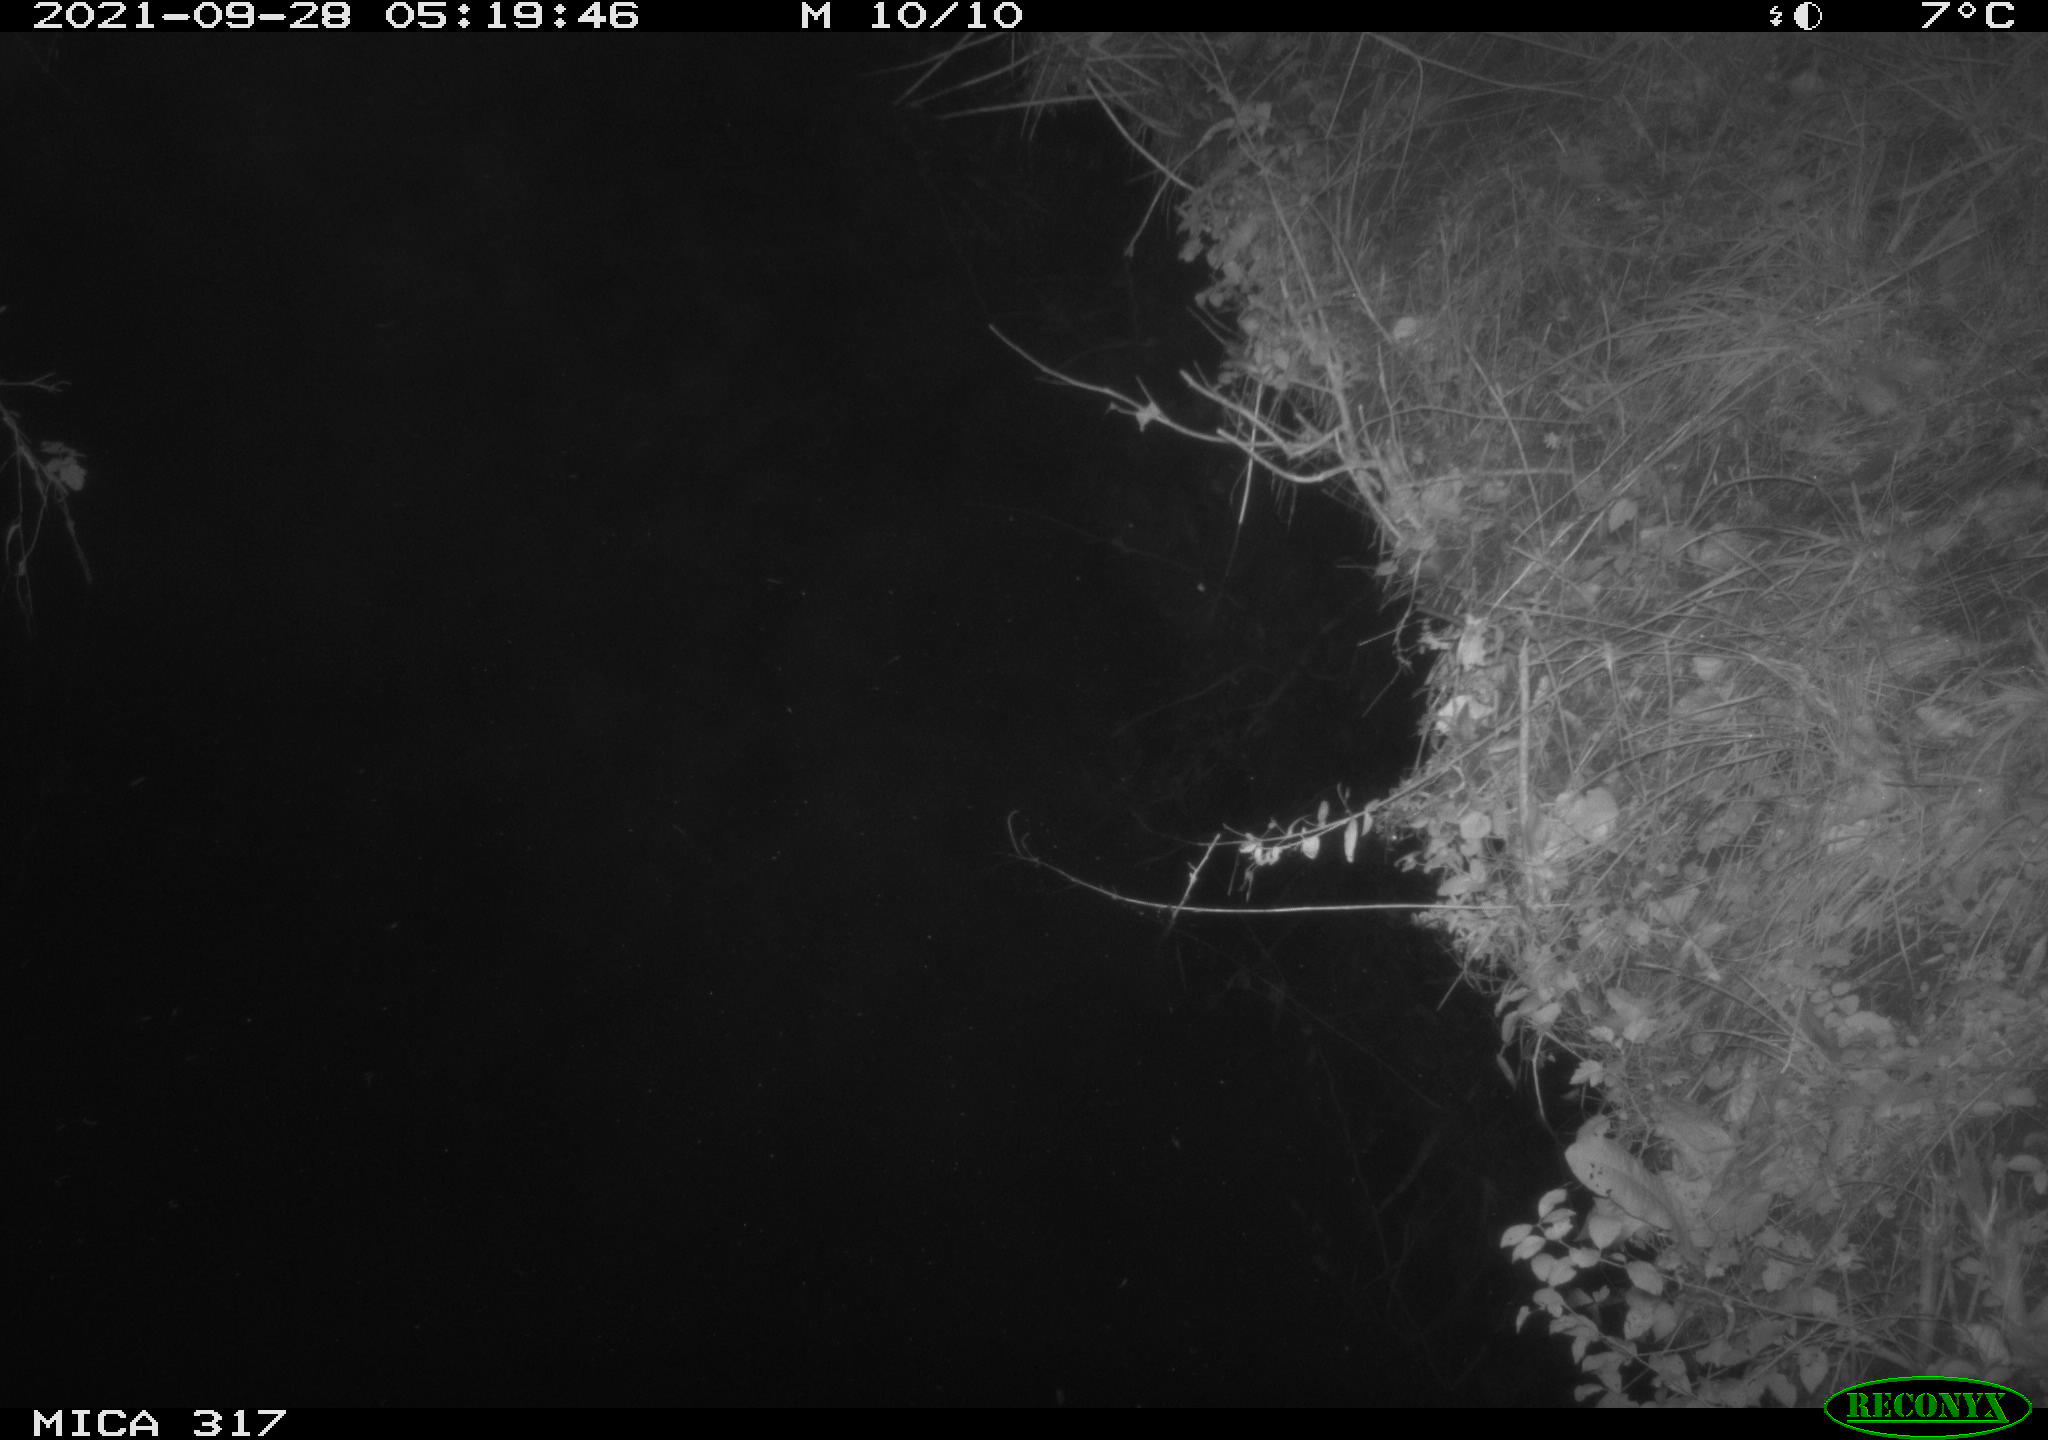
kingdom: Animalia
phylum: Chordata
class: Aves
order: Anseriformes
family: Anatidae
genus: Anas
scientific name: Anas platyrhynchos
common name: Mallard
